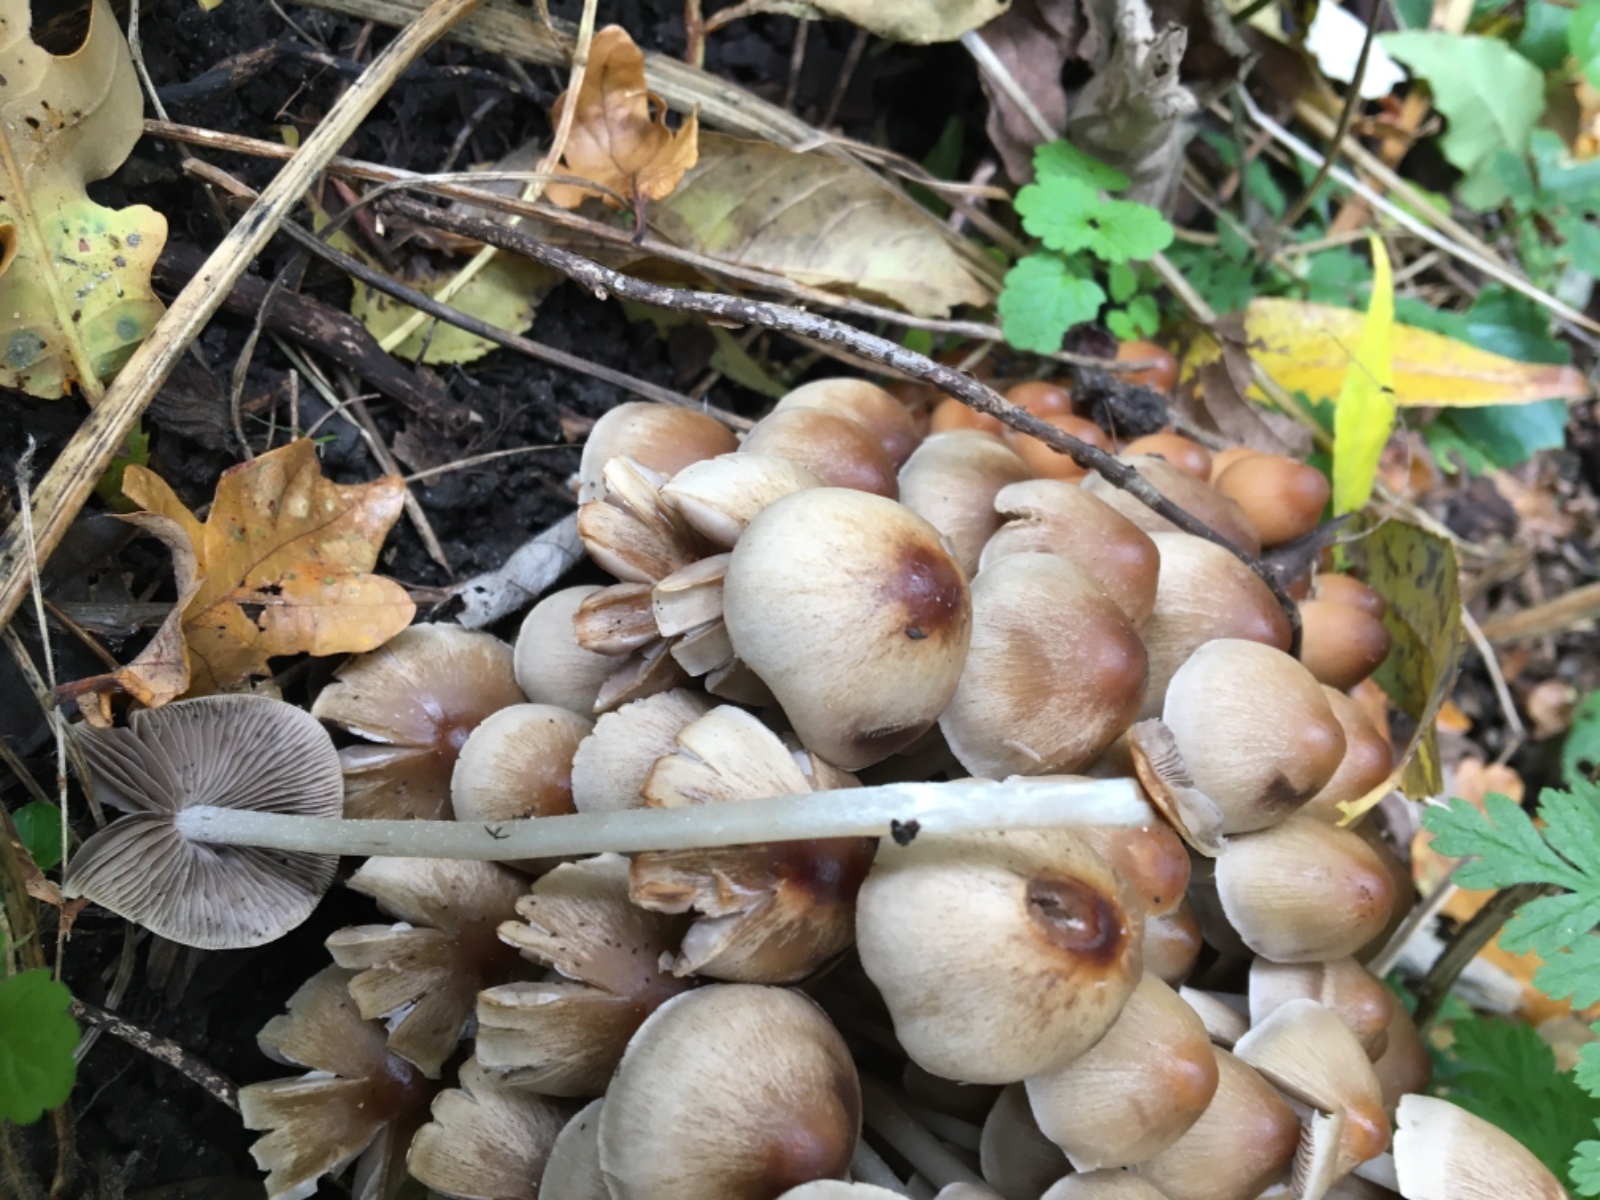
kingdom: Fungi
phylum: Basidiomycota
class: Agaricomycetes
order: Agaricales
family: Psathyrellaceae
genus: Britzelmayria
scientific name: Britzelmayria multipedata
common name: knippe-mørkhat
